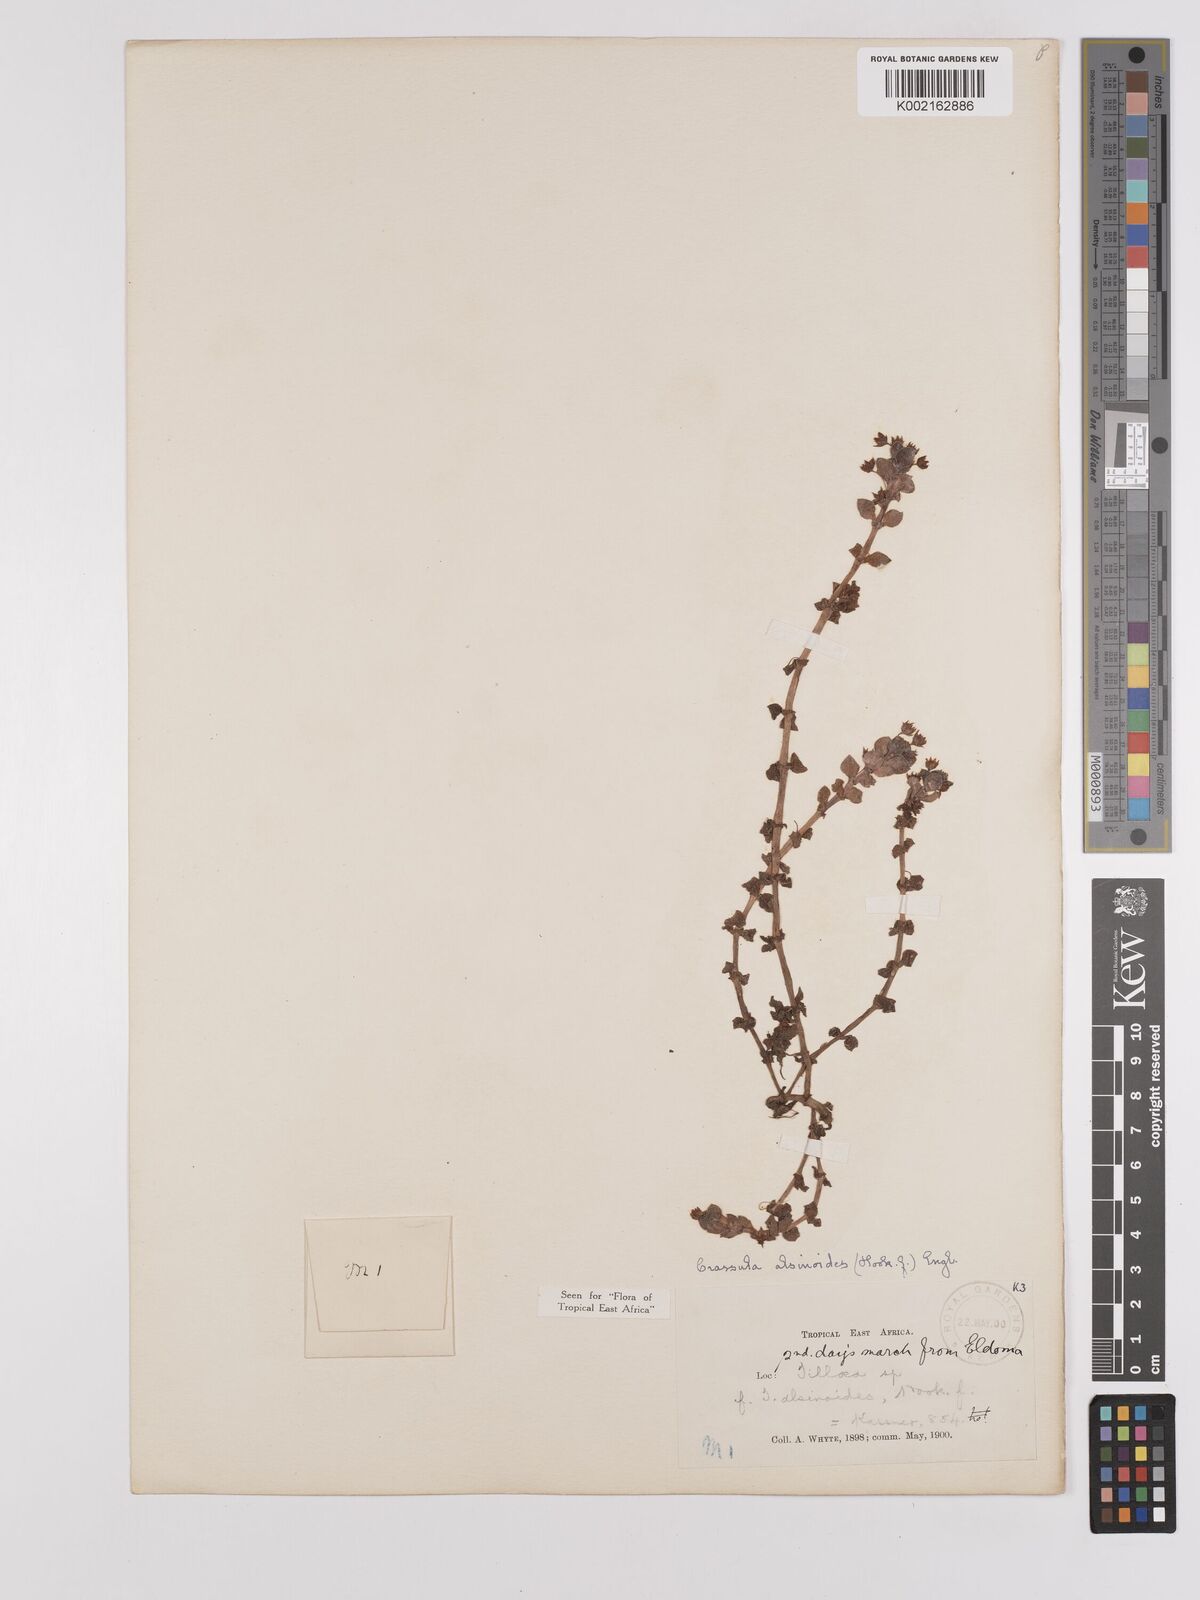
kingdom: Plantae
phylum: Tracheophyta
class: Magnoliopsida
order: Saxifragales
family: Crassulaceae
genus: Crassula
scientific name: Crassula alsinoides
